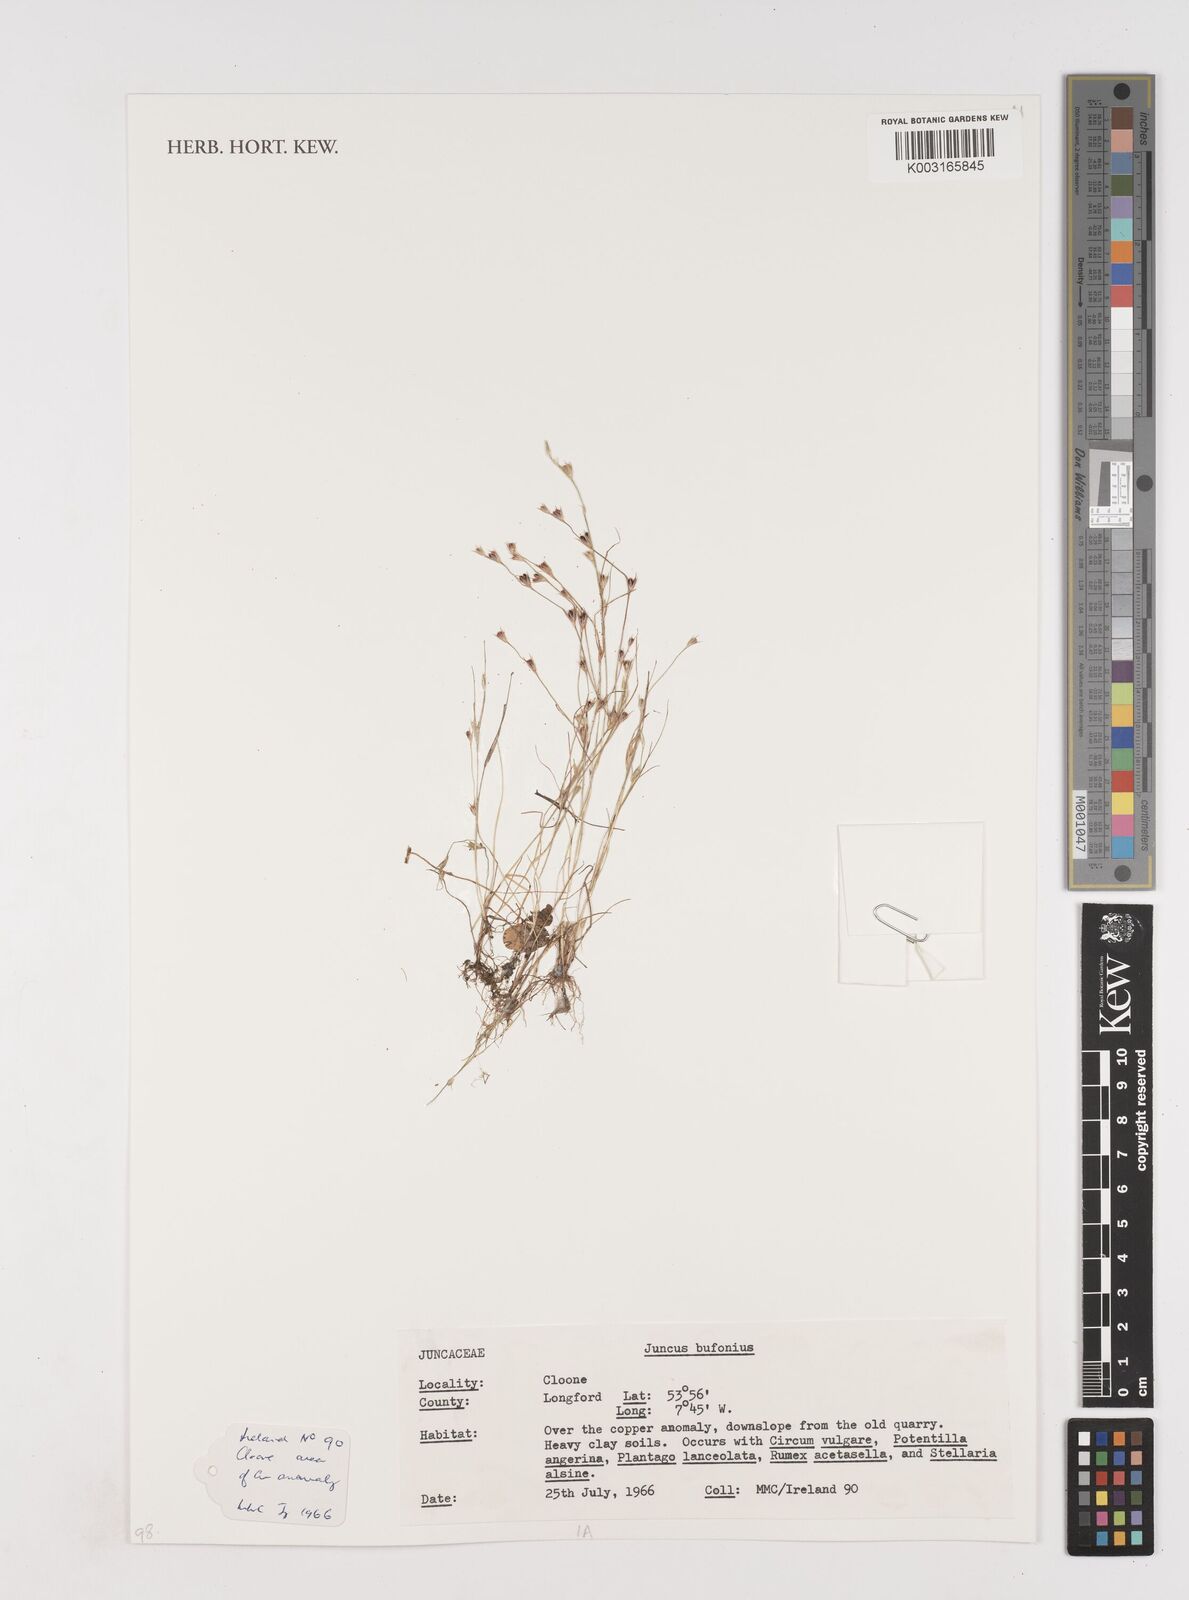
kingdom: Plantae
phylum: Tracheophyta
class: Liliopsida
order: Poales
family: Juncaceae
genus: Juncus
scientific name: Juncus bufonius
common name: Toad rush
